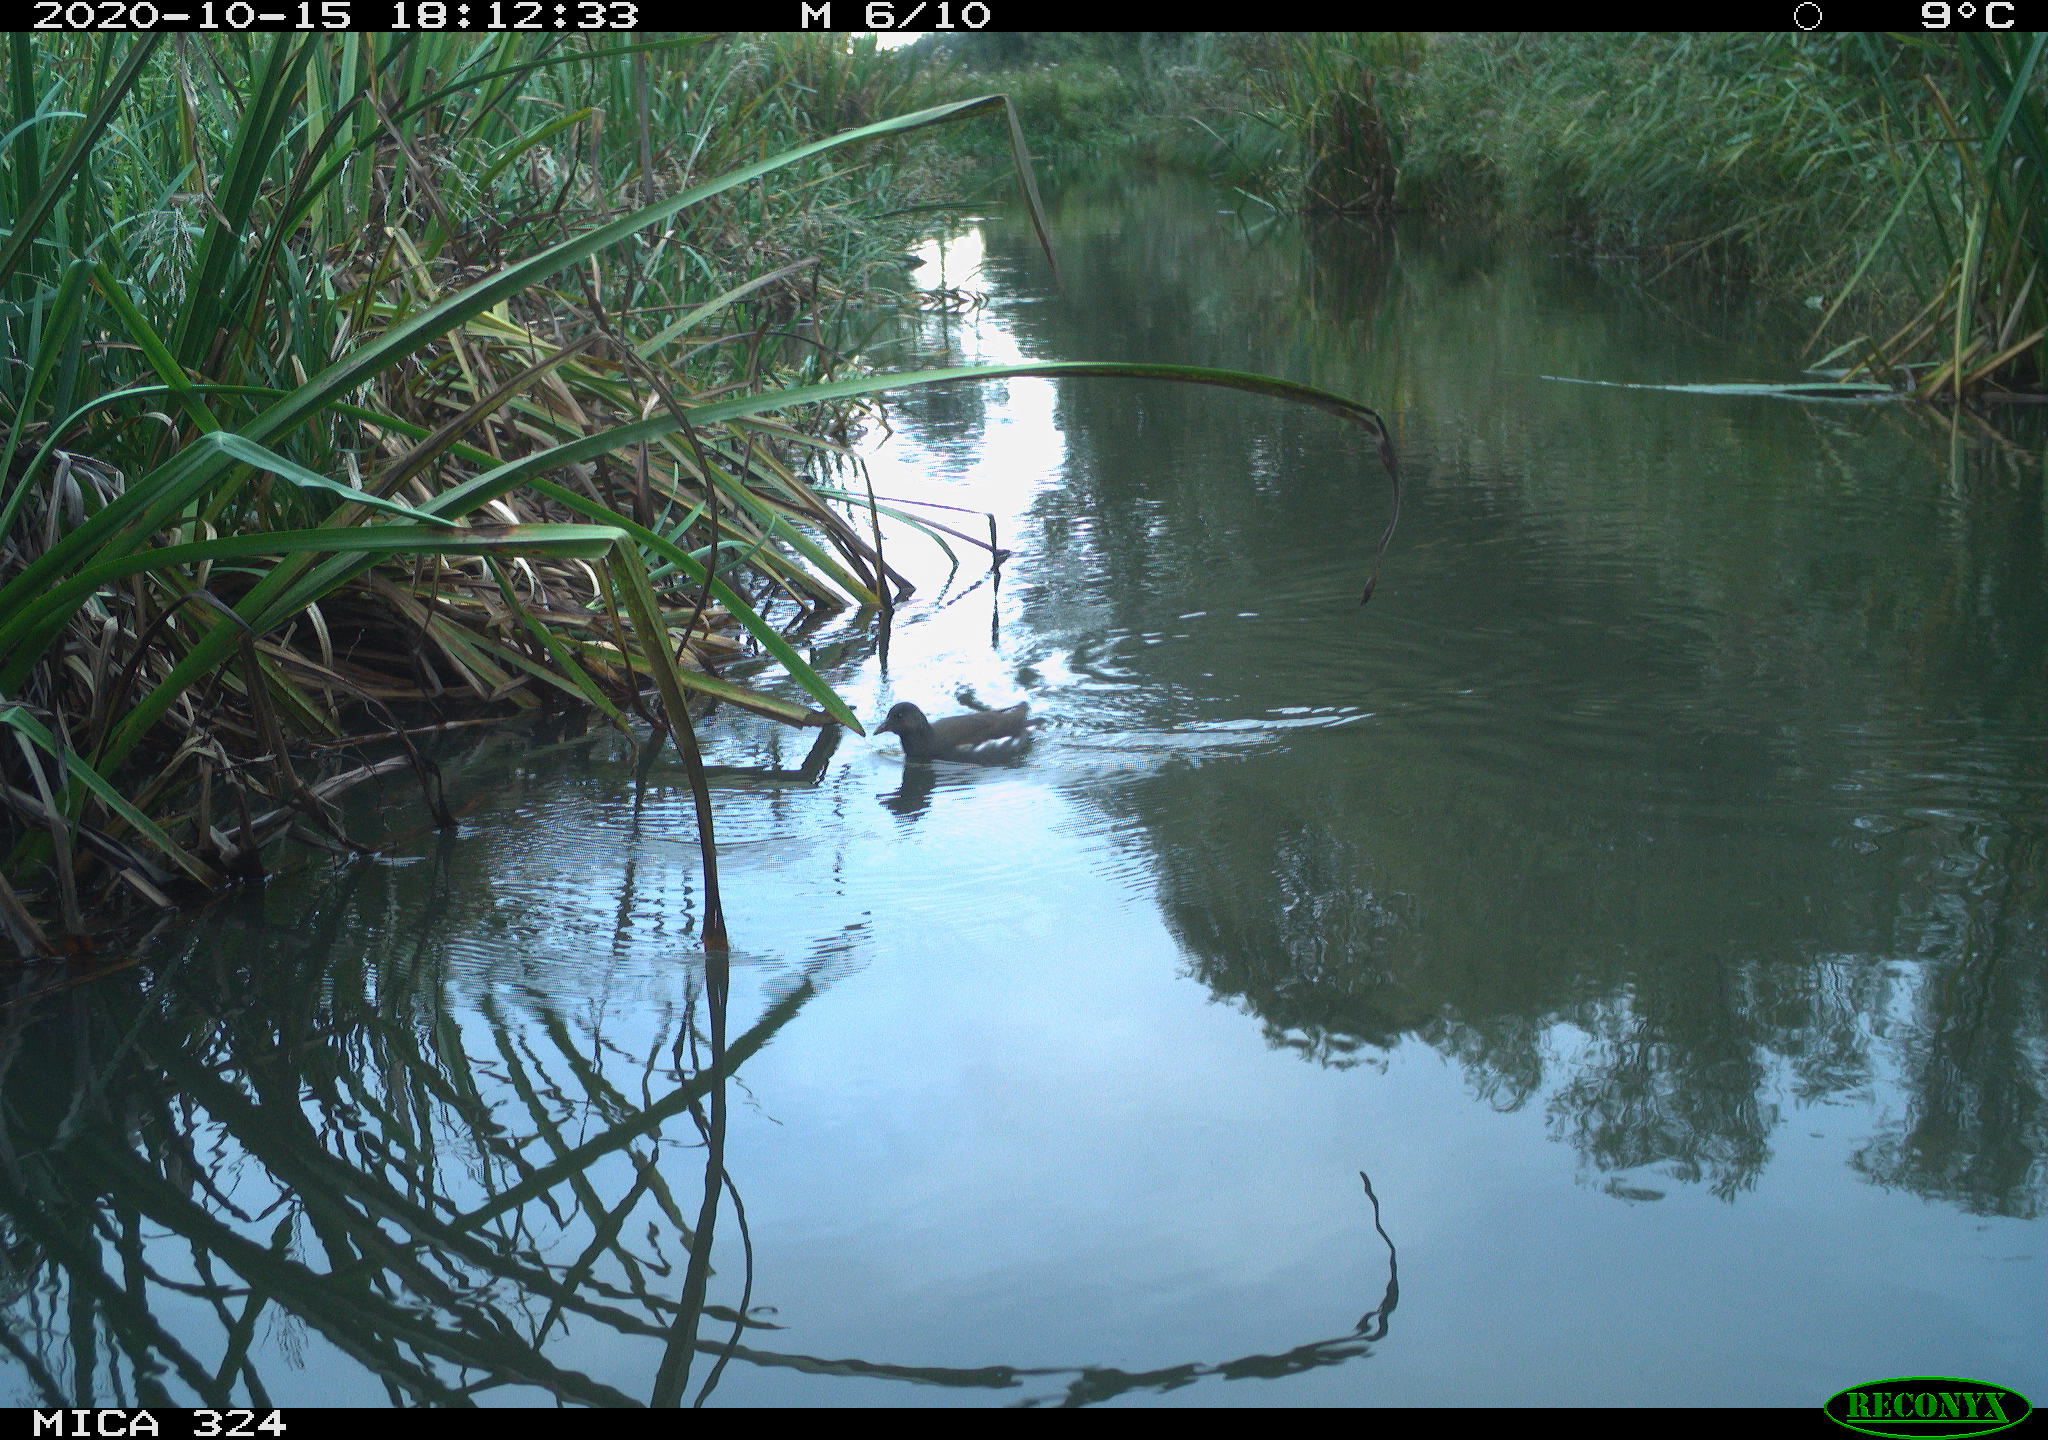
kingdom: Animalia
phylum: Chordata
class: Aves
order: Gruiformes
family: Rallidae
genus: Gallinula
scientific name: Gallinula chloropus
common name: Common moorhen
